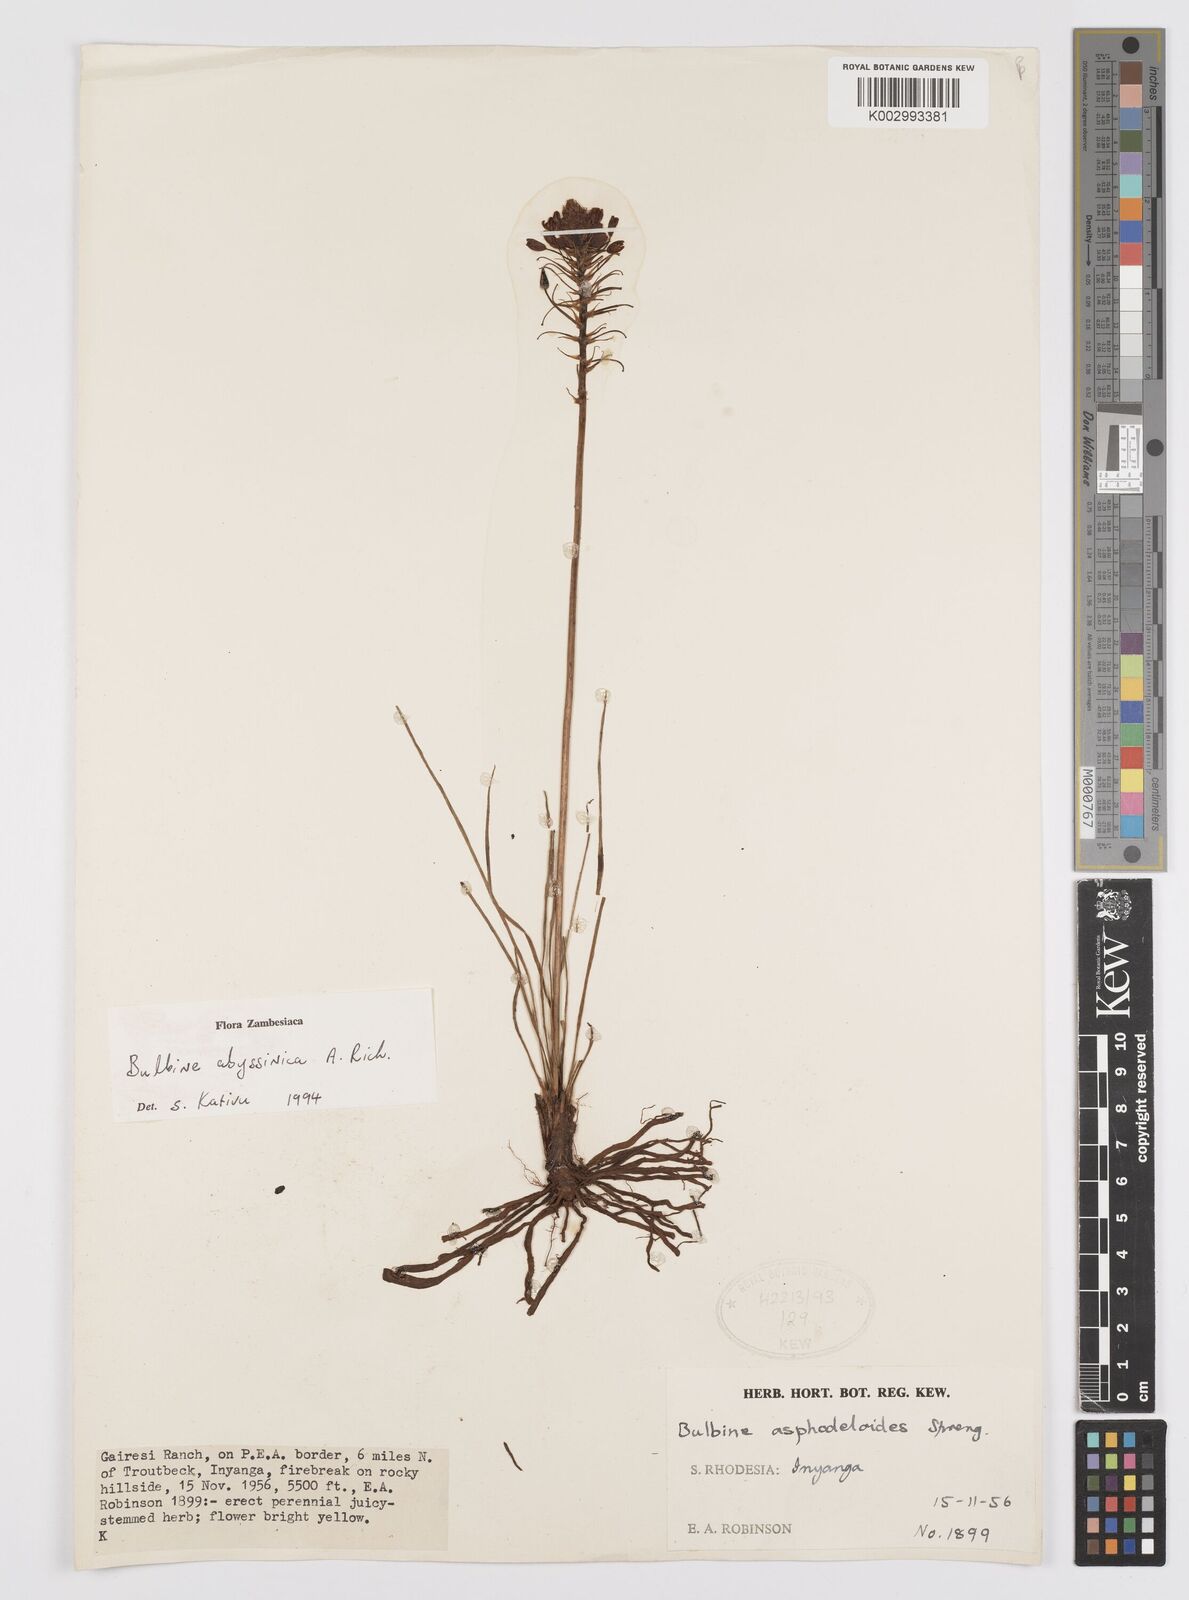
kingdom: Plantae
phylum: Tracheophyta
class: Liliopsida
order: Asparagales
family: Asphodelaceae
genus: Bulbine
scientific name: Bulbine abyssinica
